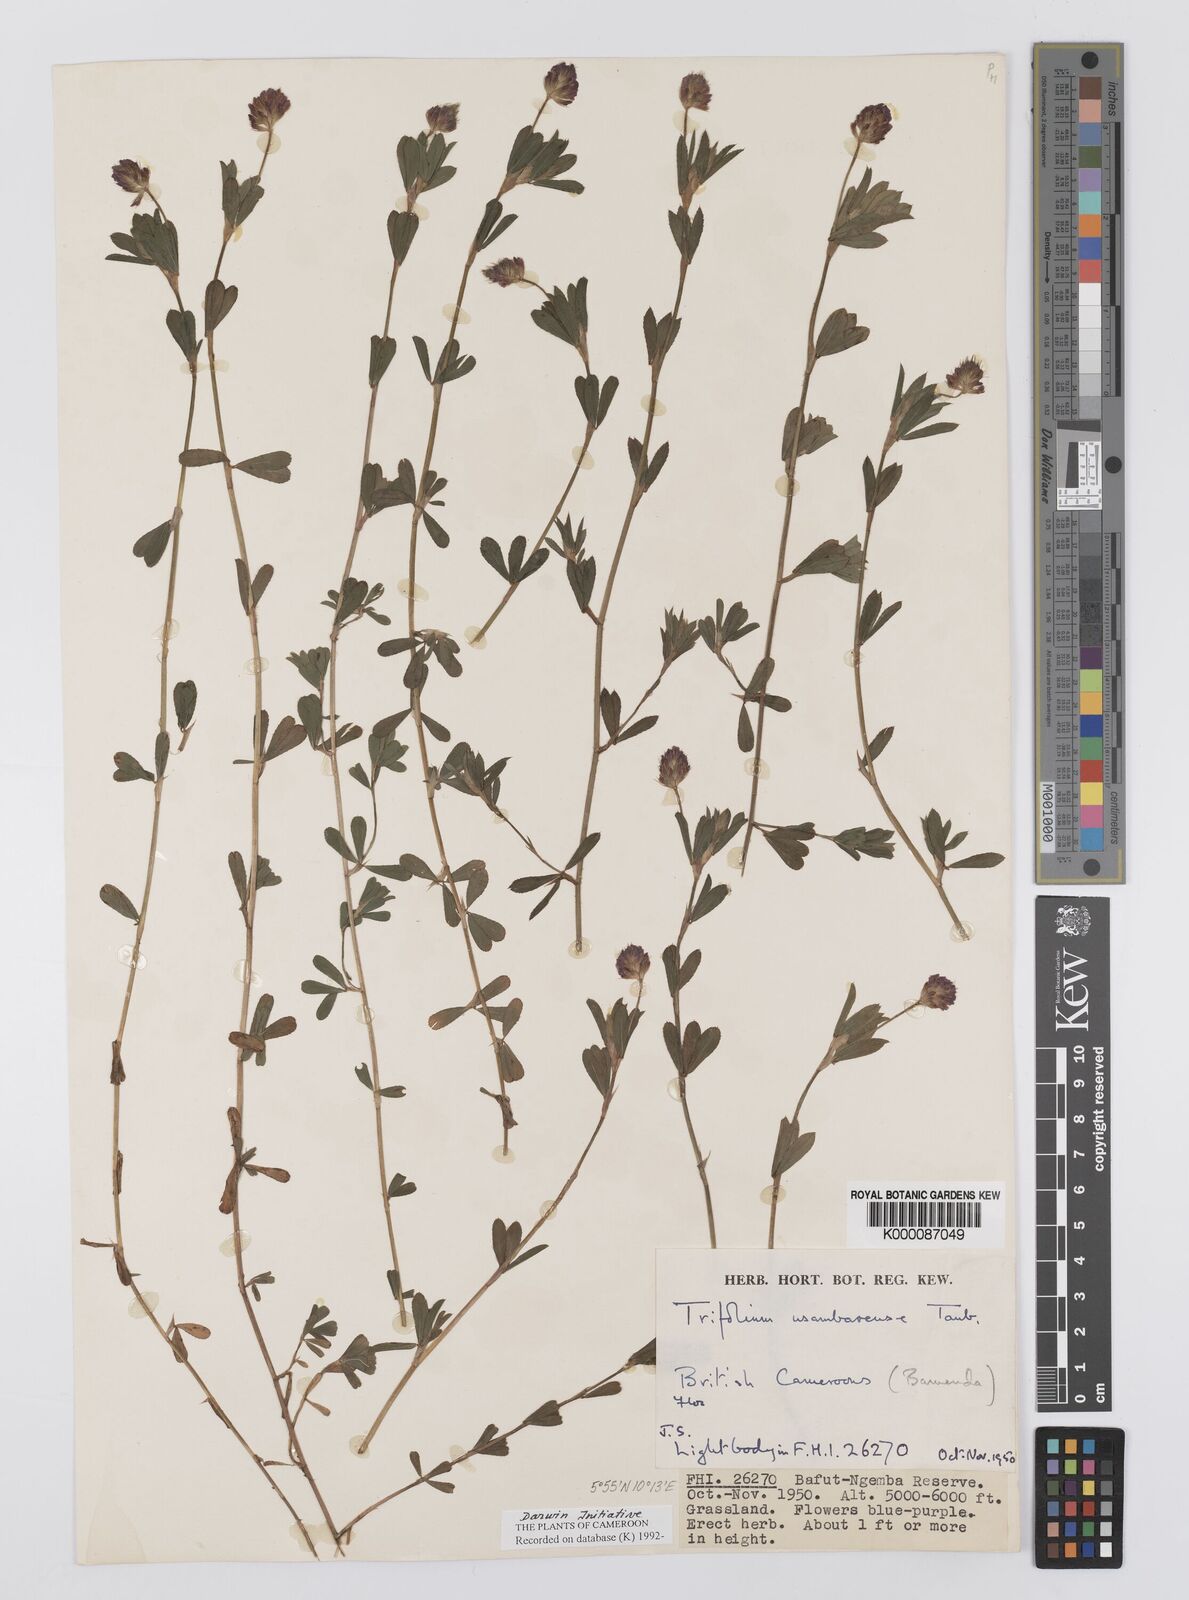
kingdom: Plantae
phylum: Tracheophyta
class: Magnoliopsida
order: Fabales
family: Fabaceae
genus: Trifolium
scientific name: Trifolium usambarense
